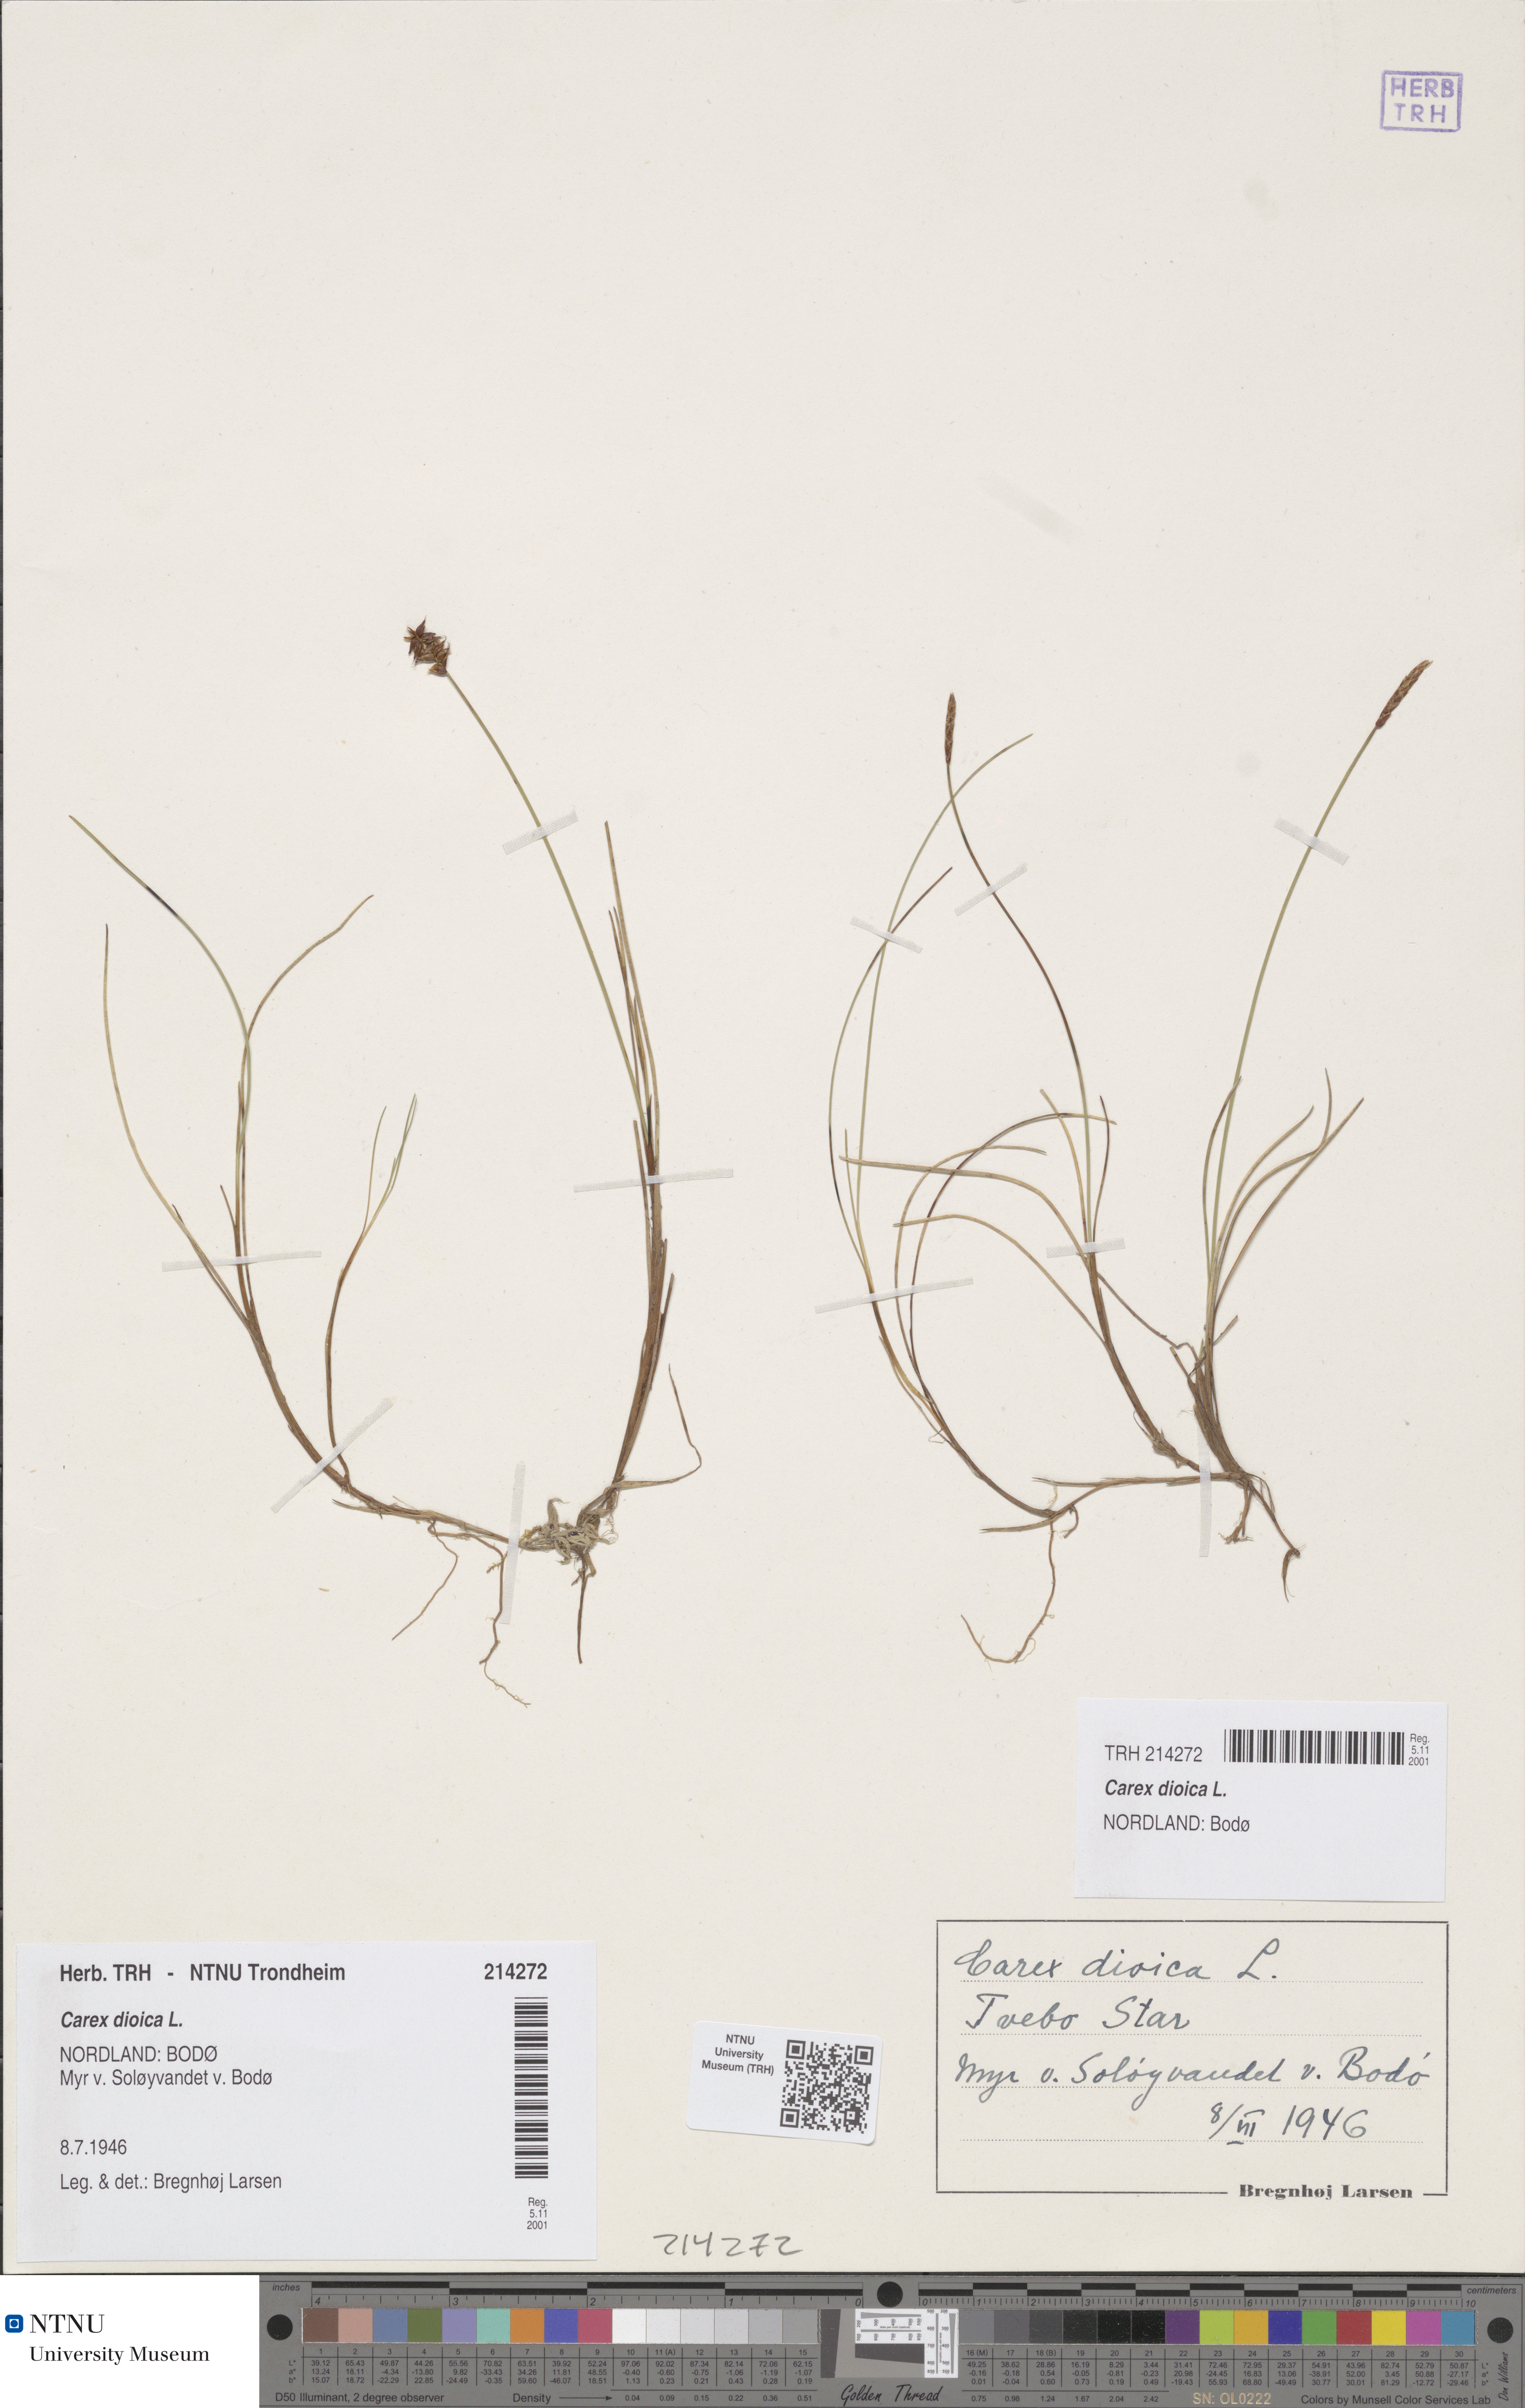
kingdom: Plantae
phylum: Tracheophyta
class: Liliopsida
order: Poales
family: Cyperaceae
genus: Carex
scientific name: Carex dioica
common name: Dioecious sedge
